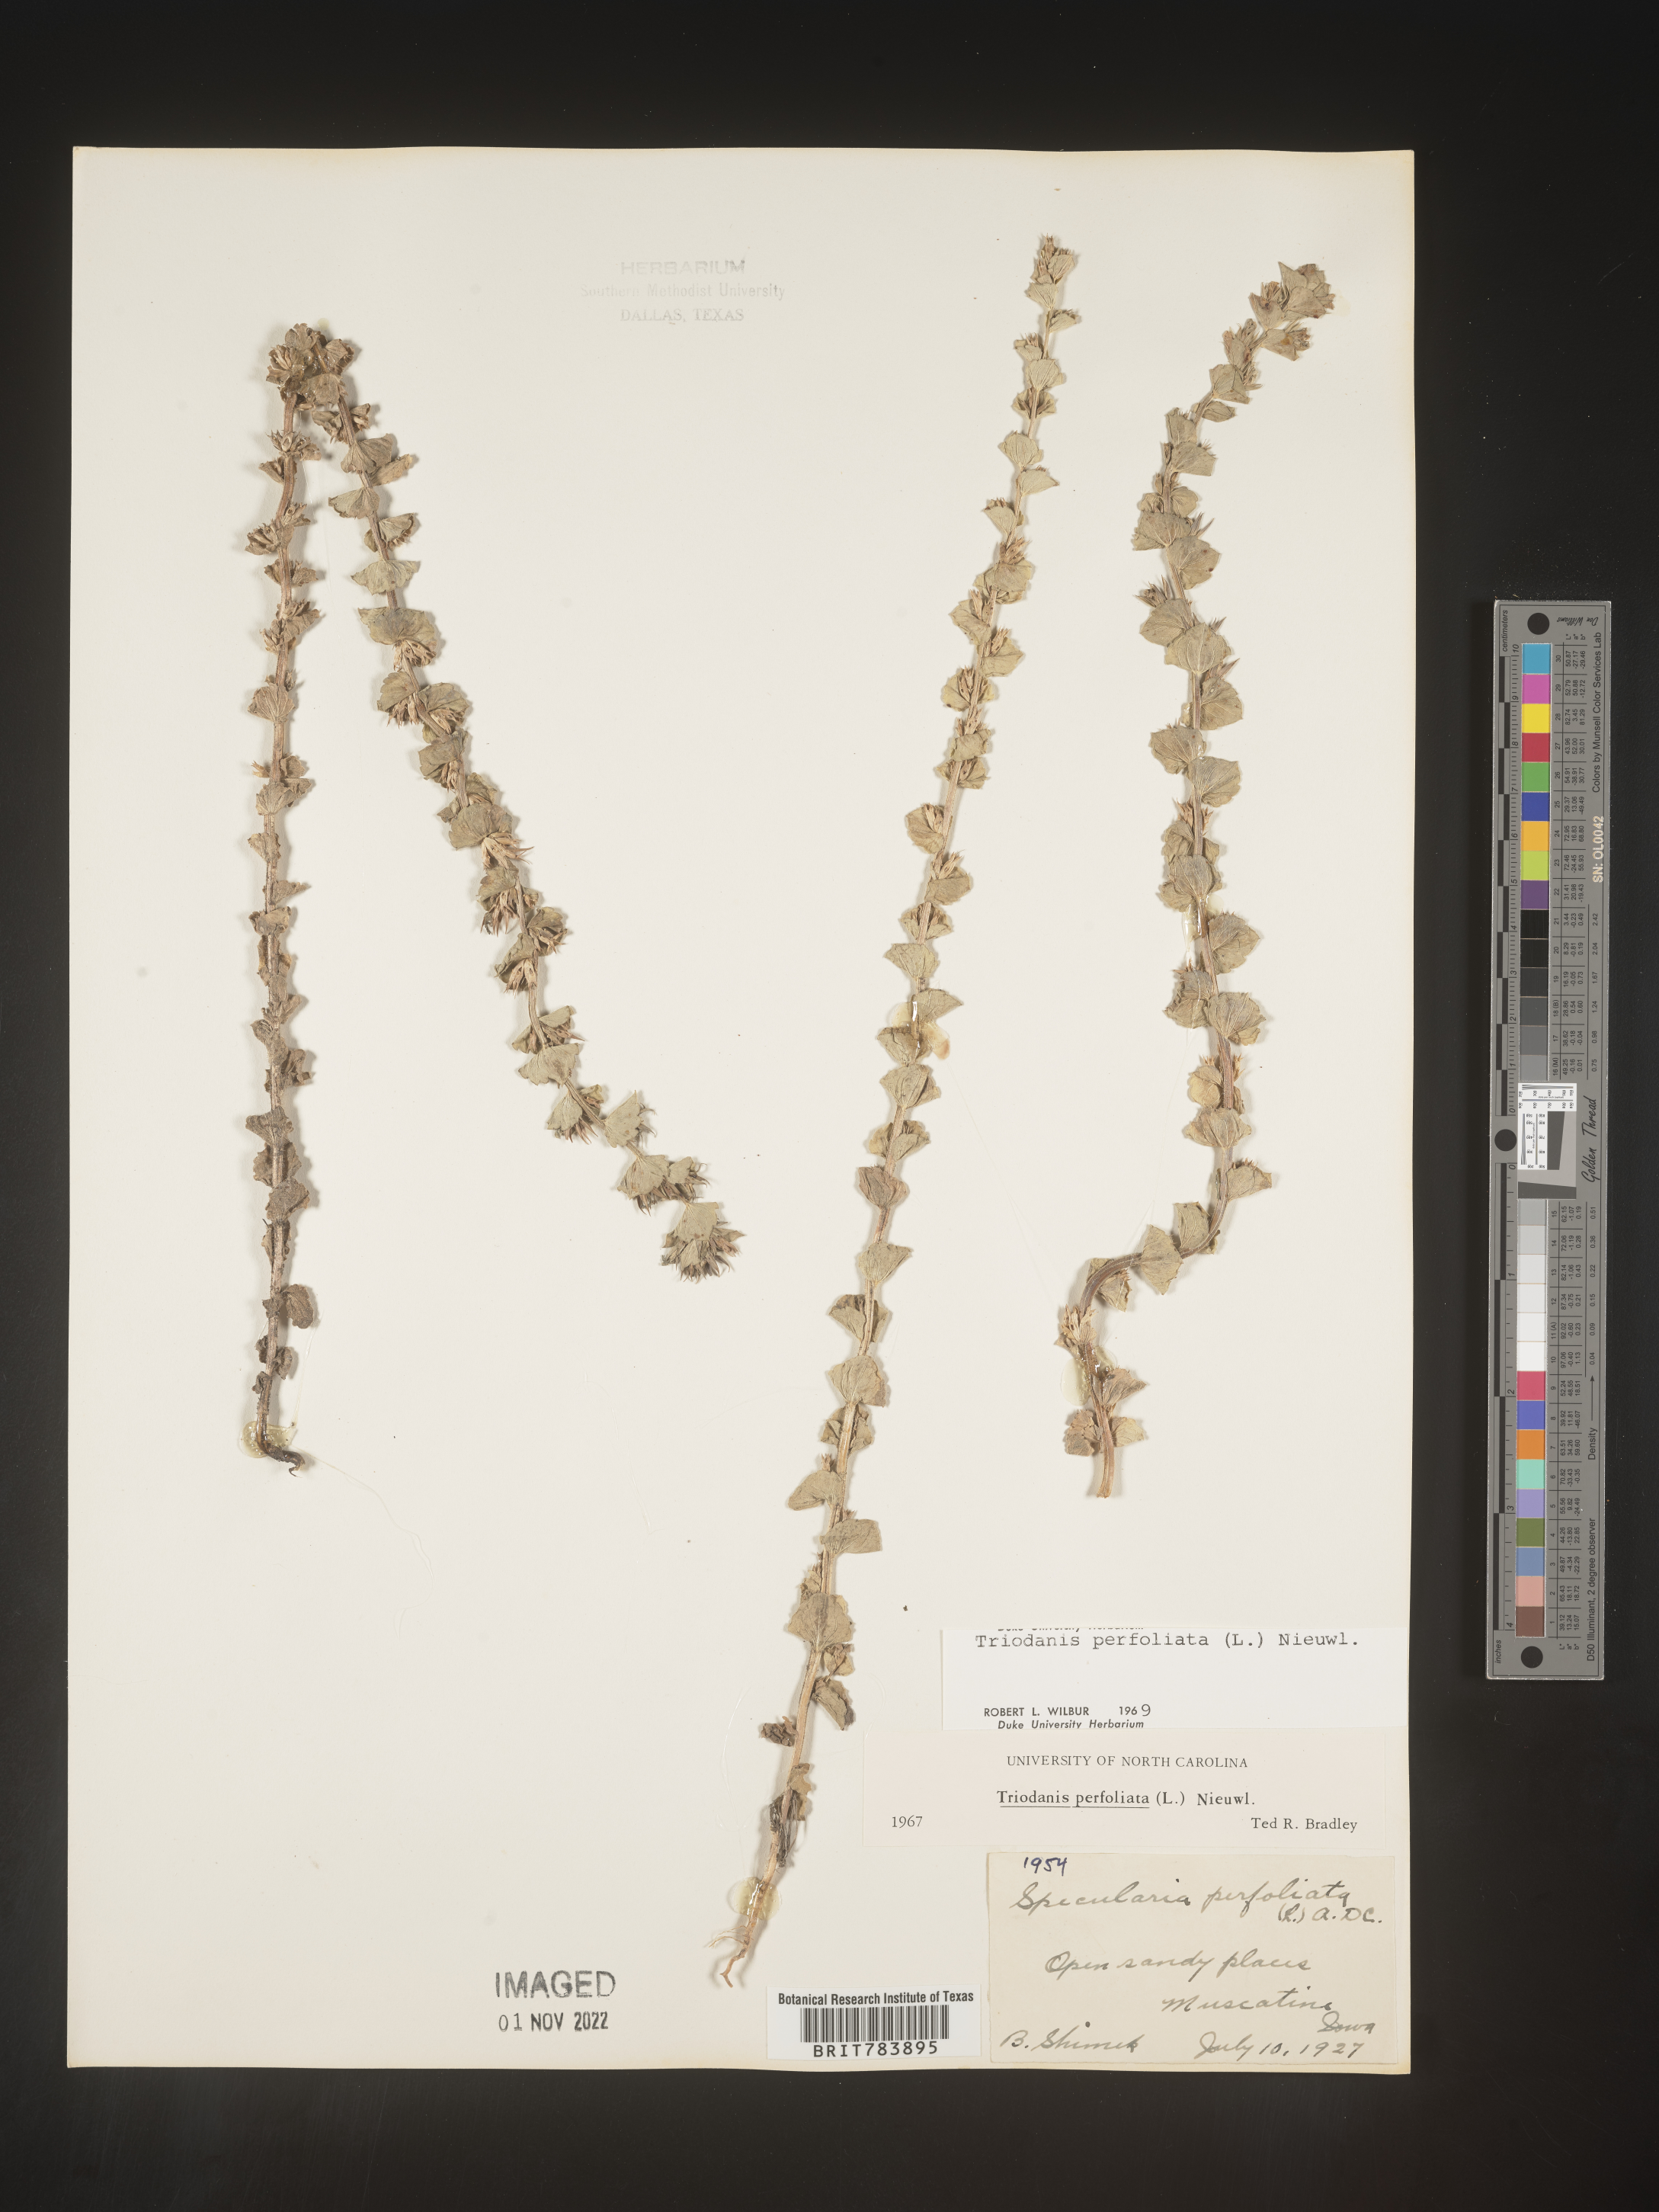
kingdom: Plantae
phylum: Tracheophyta
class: Magnoliopsida
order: Asterales
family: Campanulaceae
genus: Triodanis
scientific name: Triodanis perfoliata
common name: Clasping venus' looking-glass
